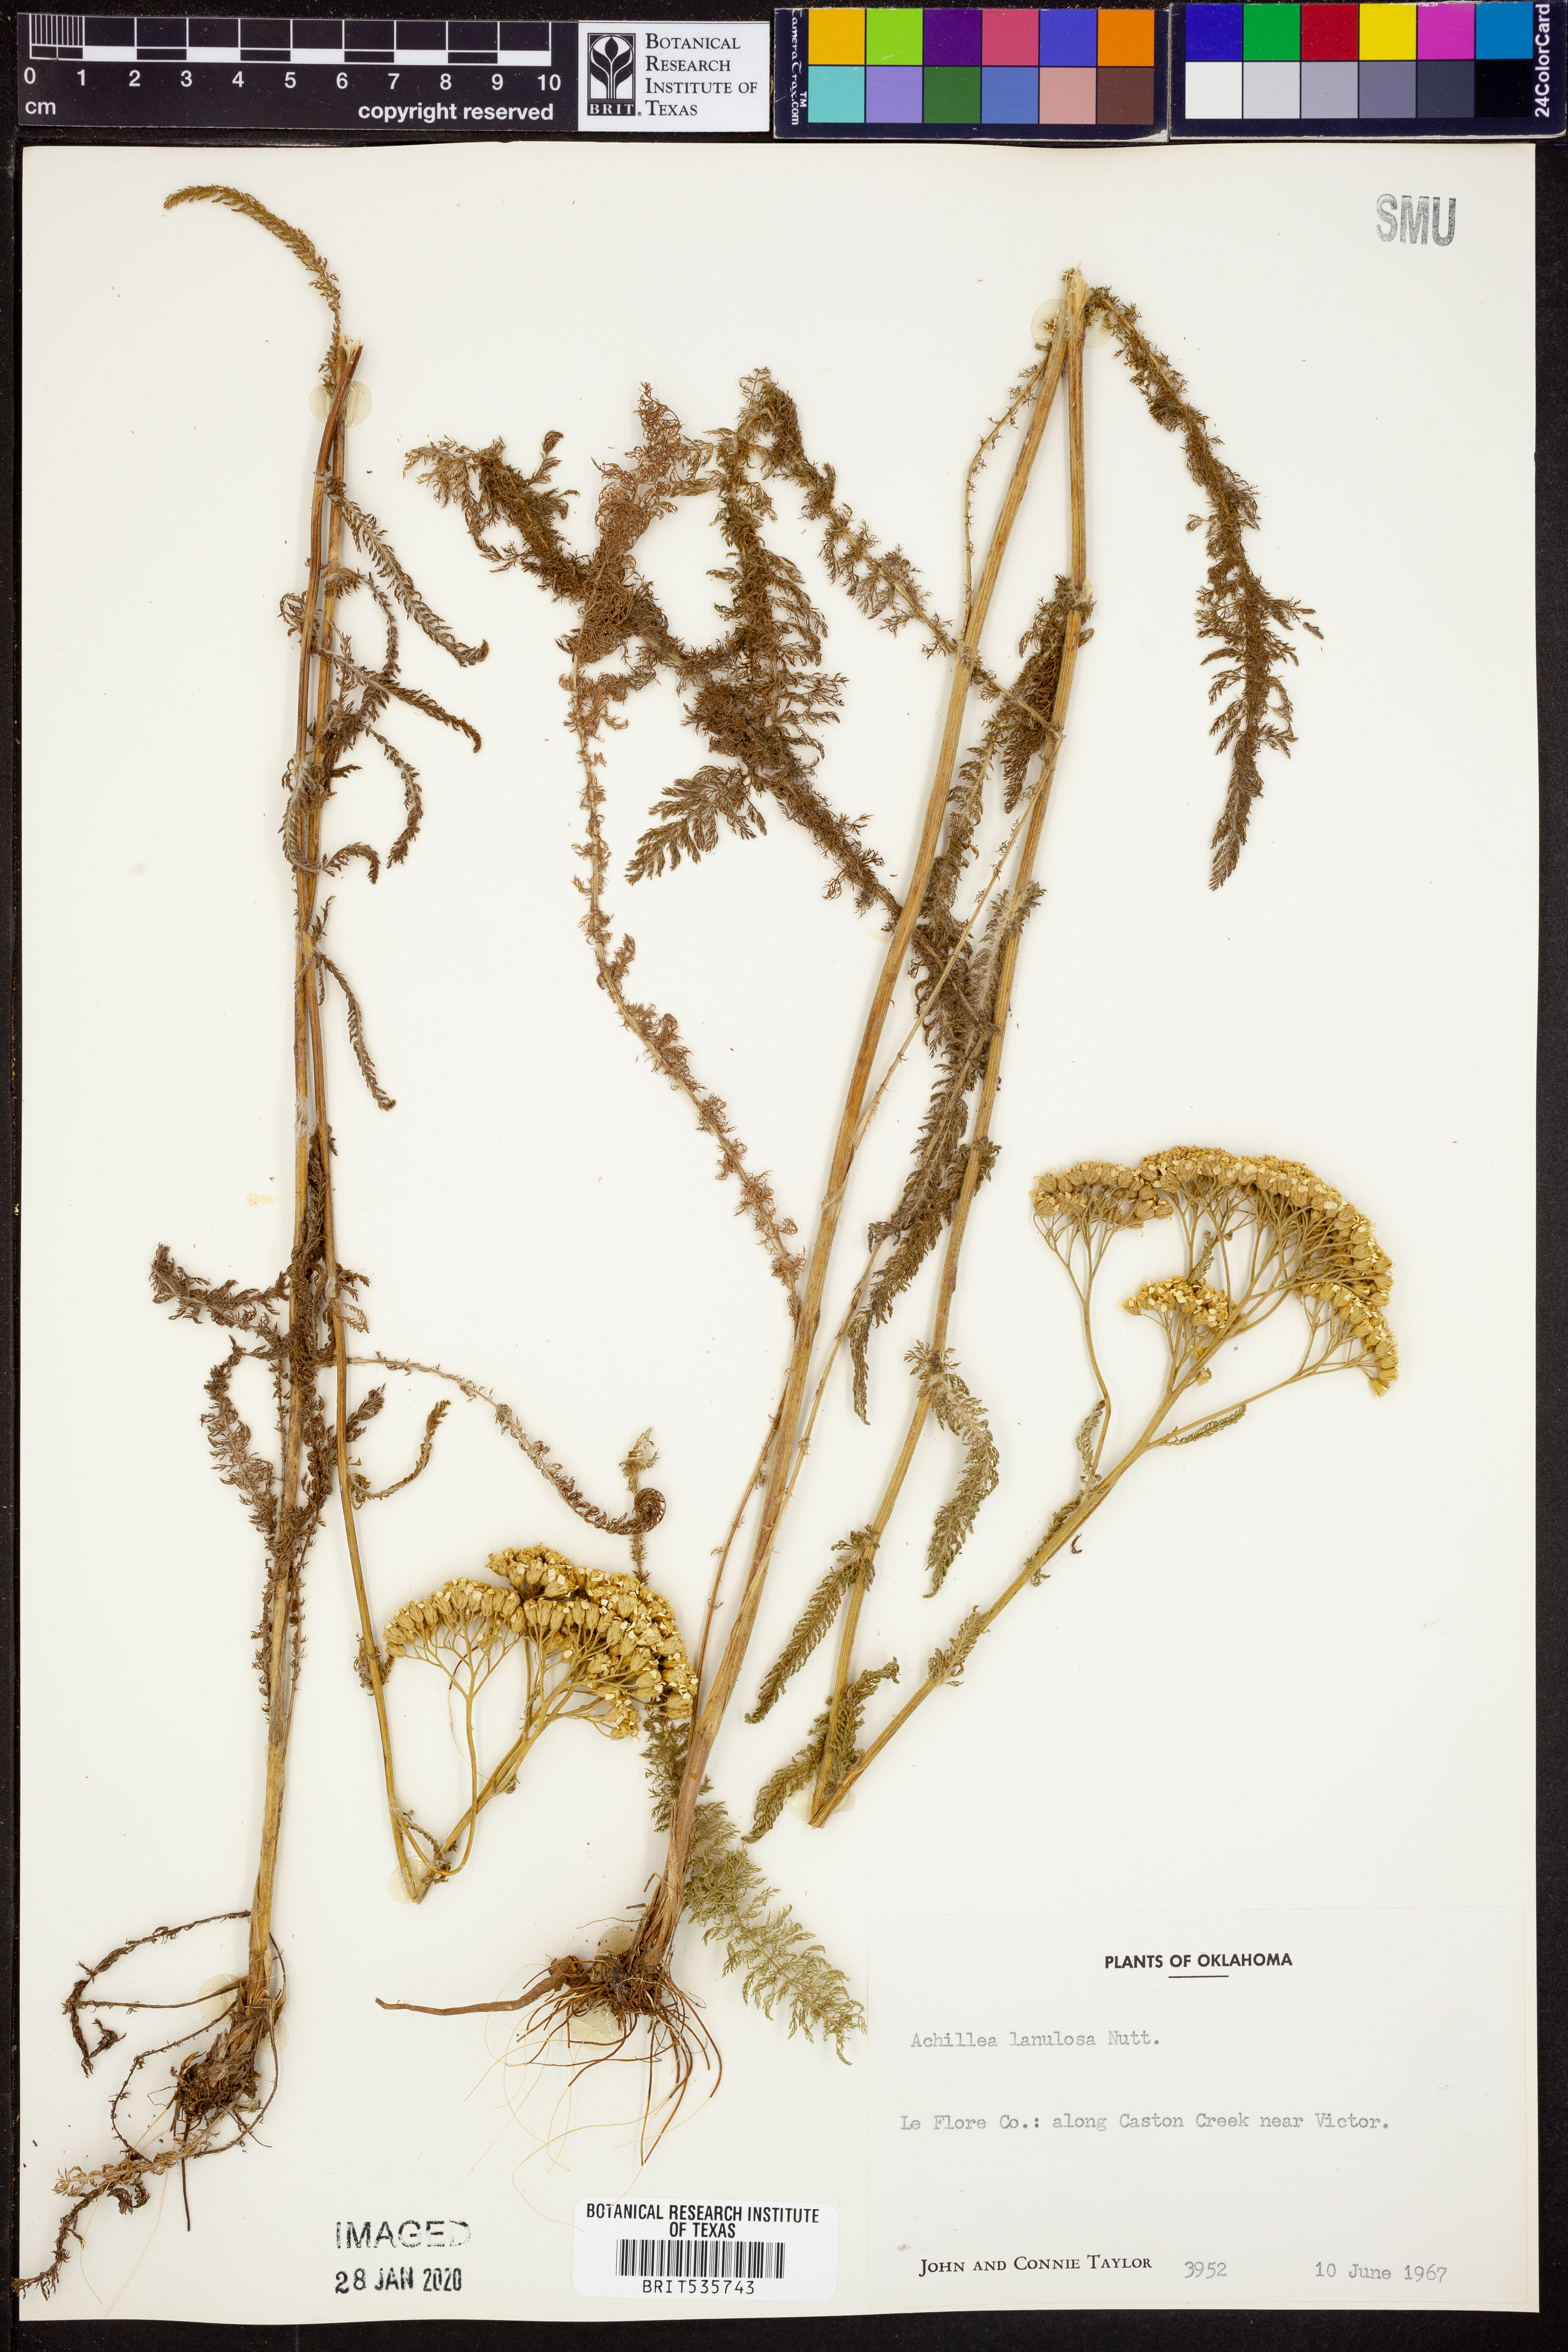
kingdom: Plantae
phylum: Tracheophyta
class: Magnoliopsida
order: Asterales
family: Asteraceae
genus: Achillea
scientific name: Achillea millefolium
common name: Yarrow
